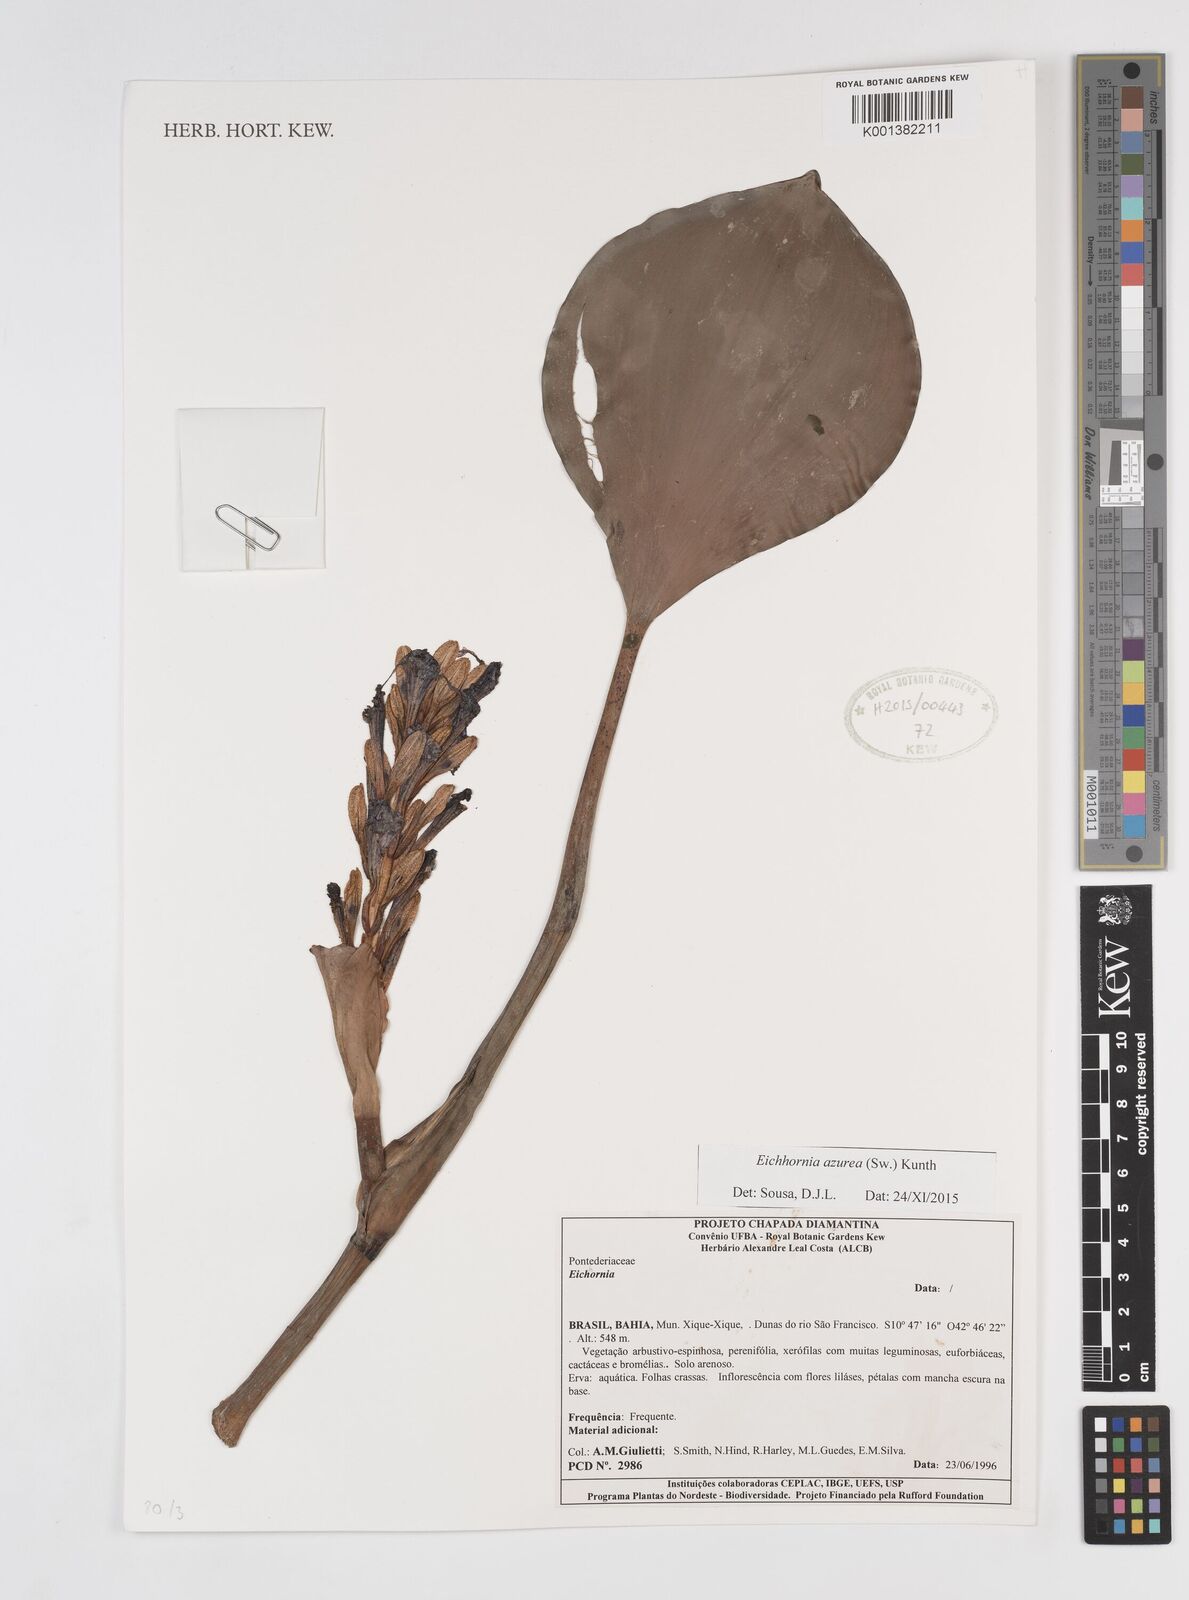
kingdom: Plantae
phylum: Tracheophyta
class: Liliopsida
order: Commelinales
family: Pontederiaceae
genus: Pontederia
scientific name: Pontederia
